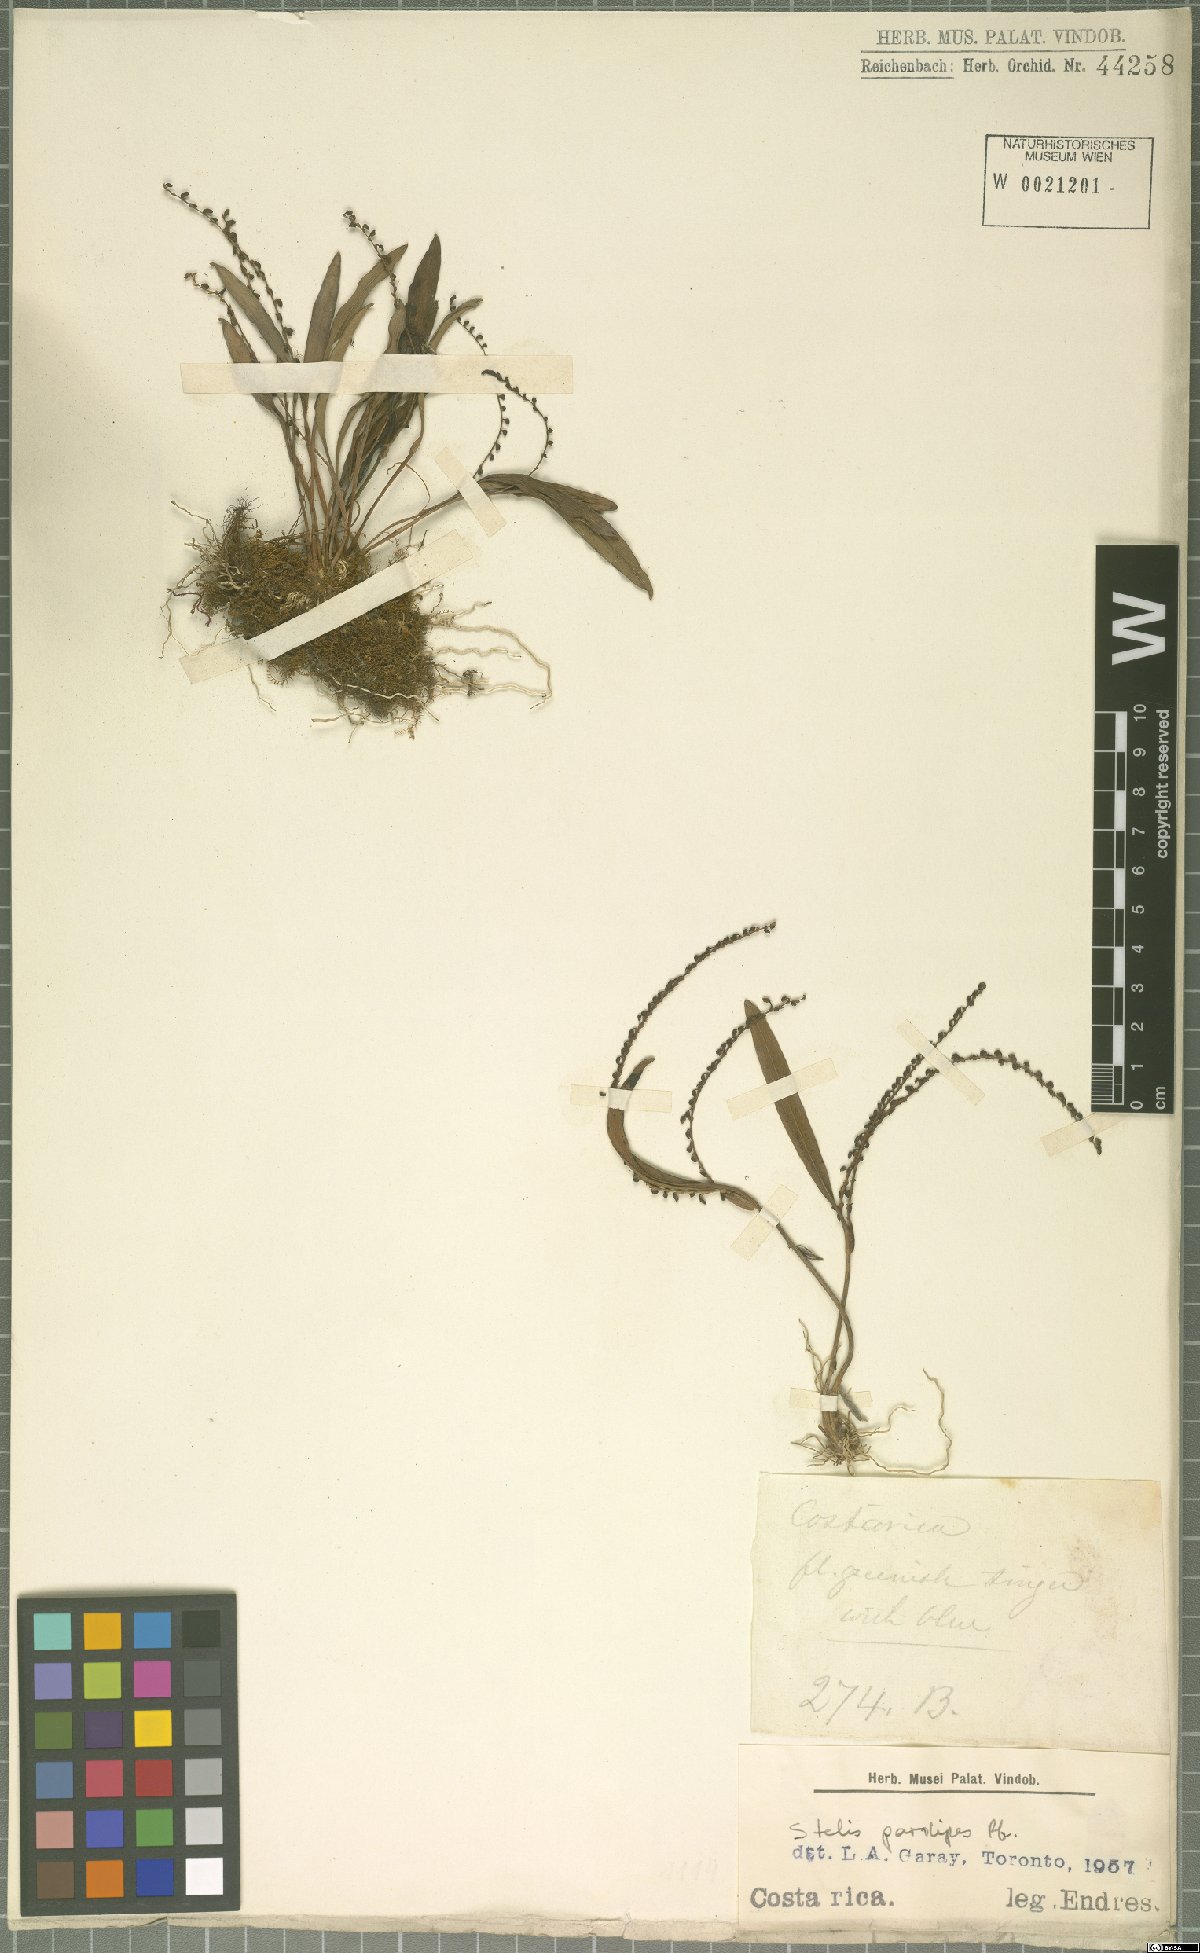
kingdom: Plantae
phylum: Tracheophyta
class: Liliopsida
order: Asparagales
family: Orchidaceae
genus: Stelis
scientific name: Stelis pardipes
